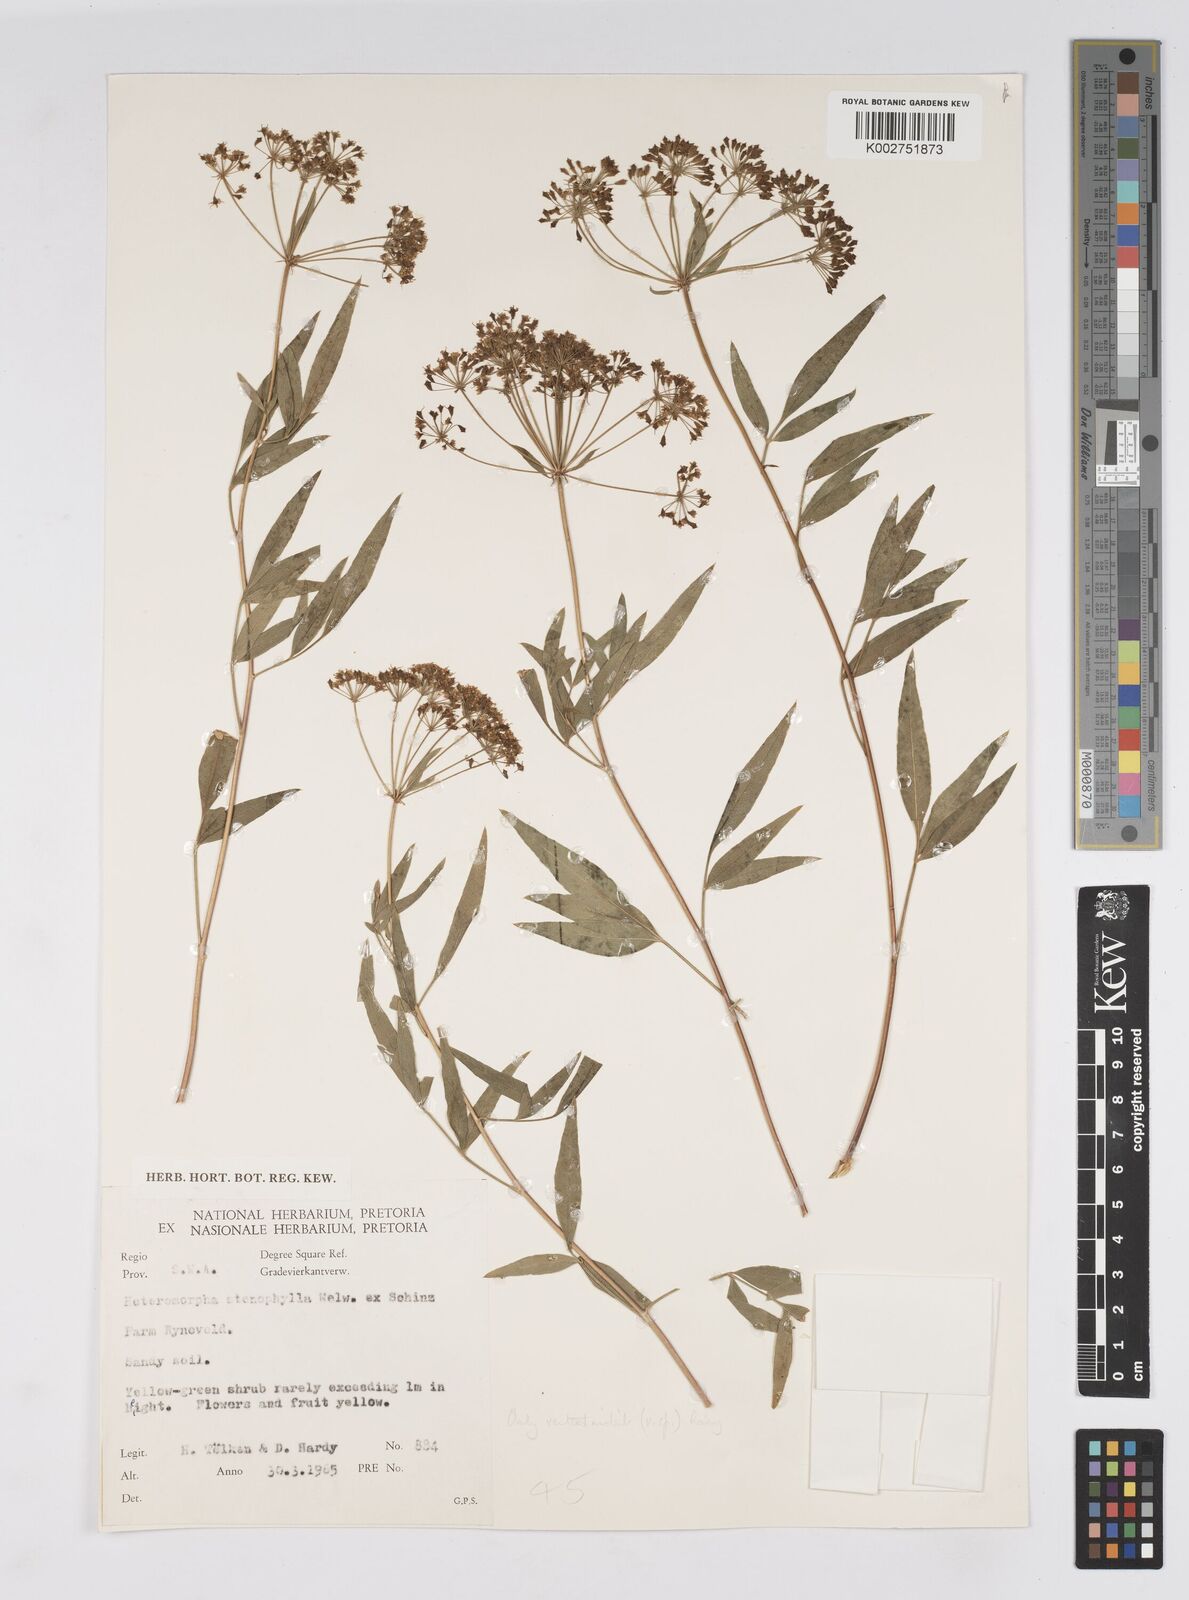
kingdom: Plantae
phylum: Tracheophyta
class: Magnoliopsida
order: Apiales
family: Apiaceae
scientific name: Apiaceae
